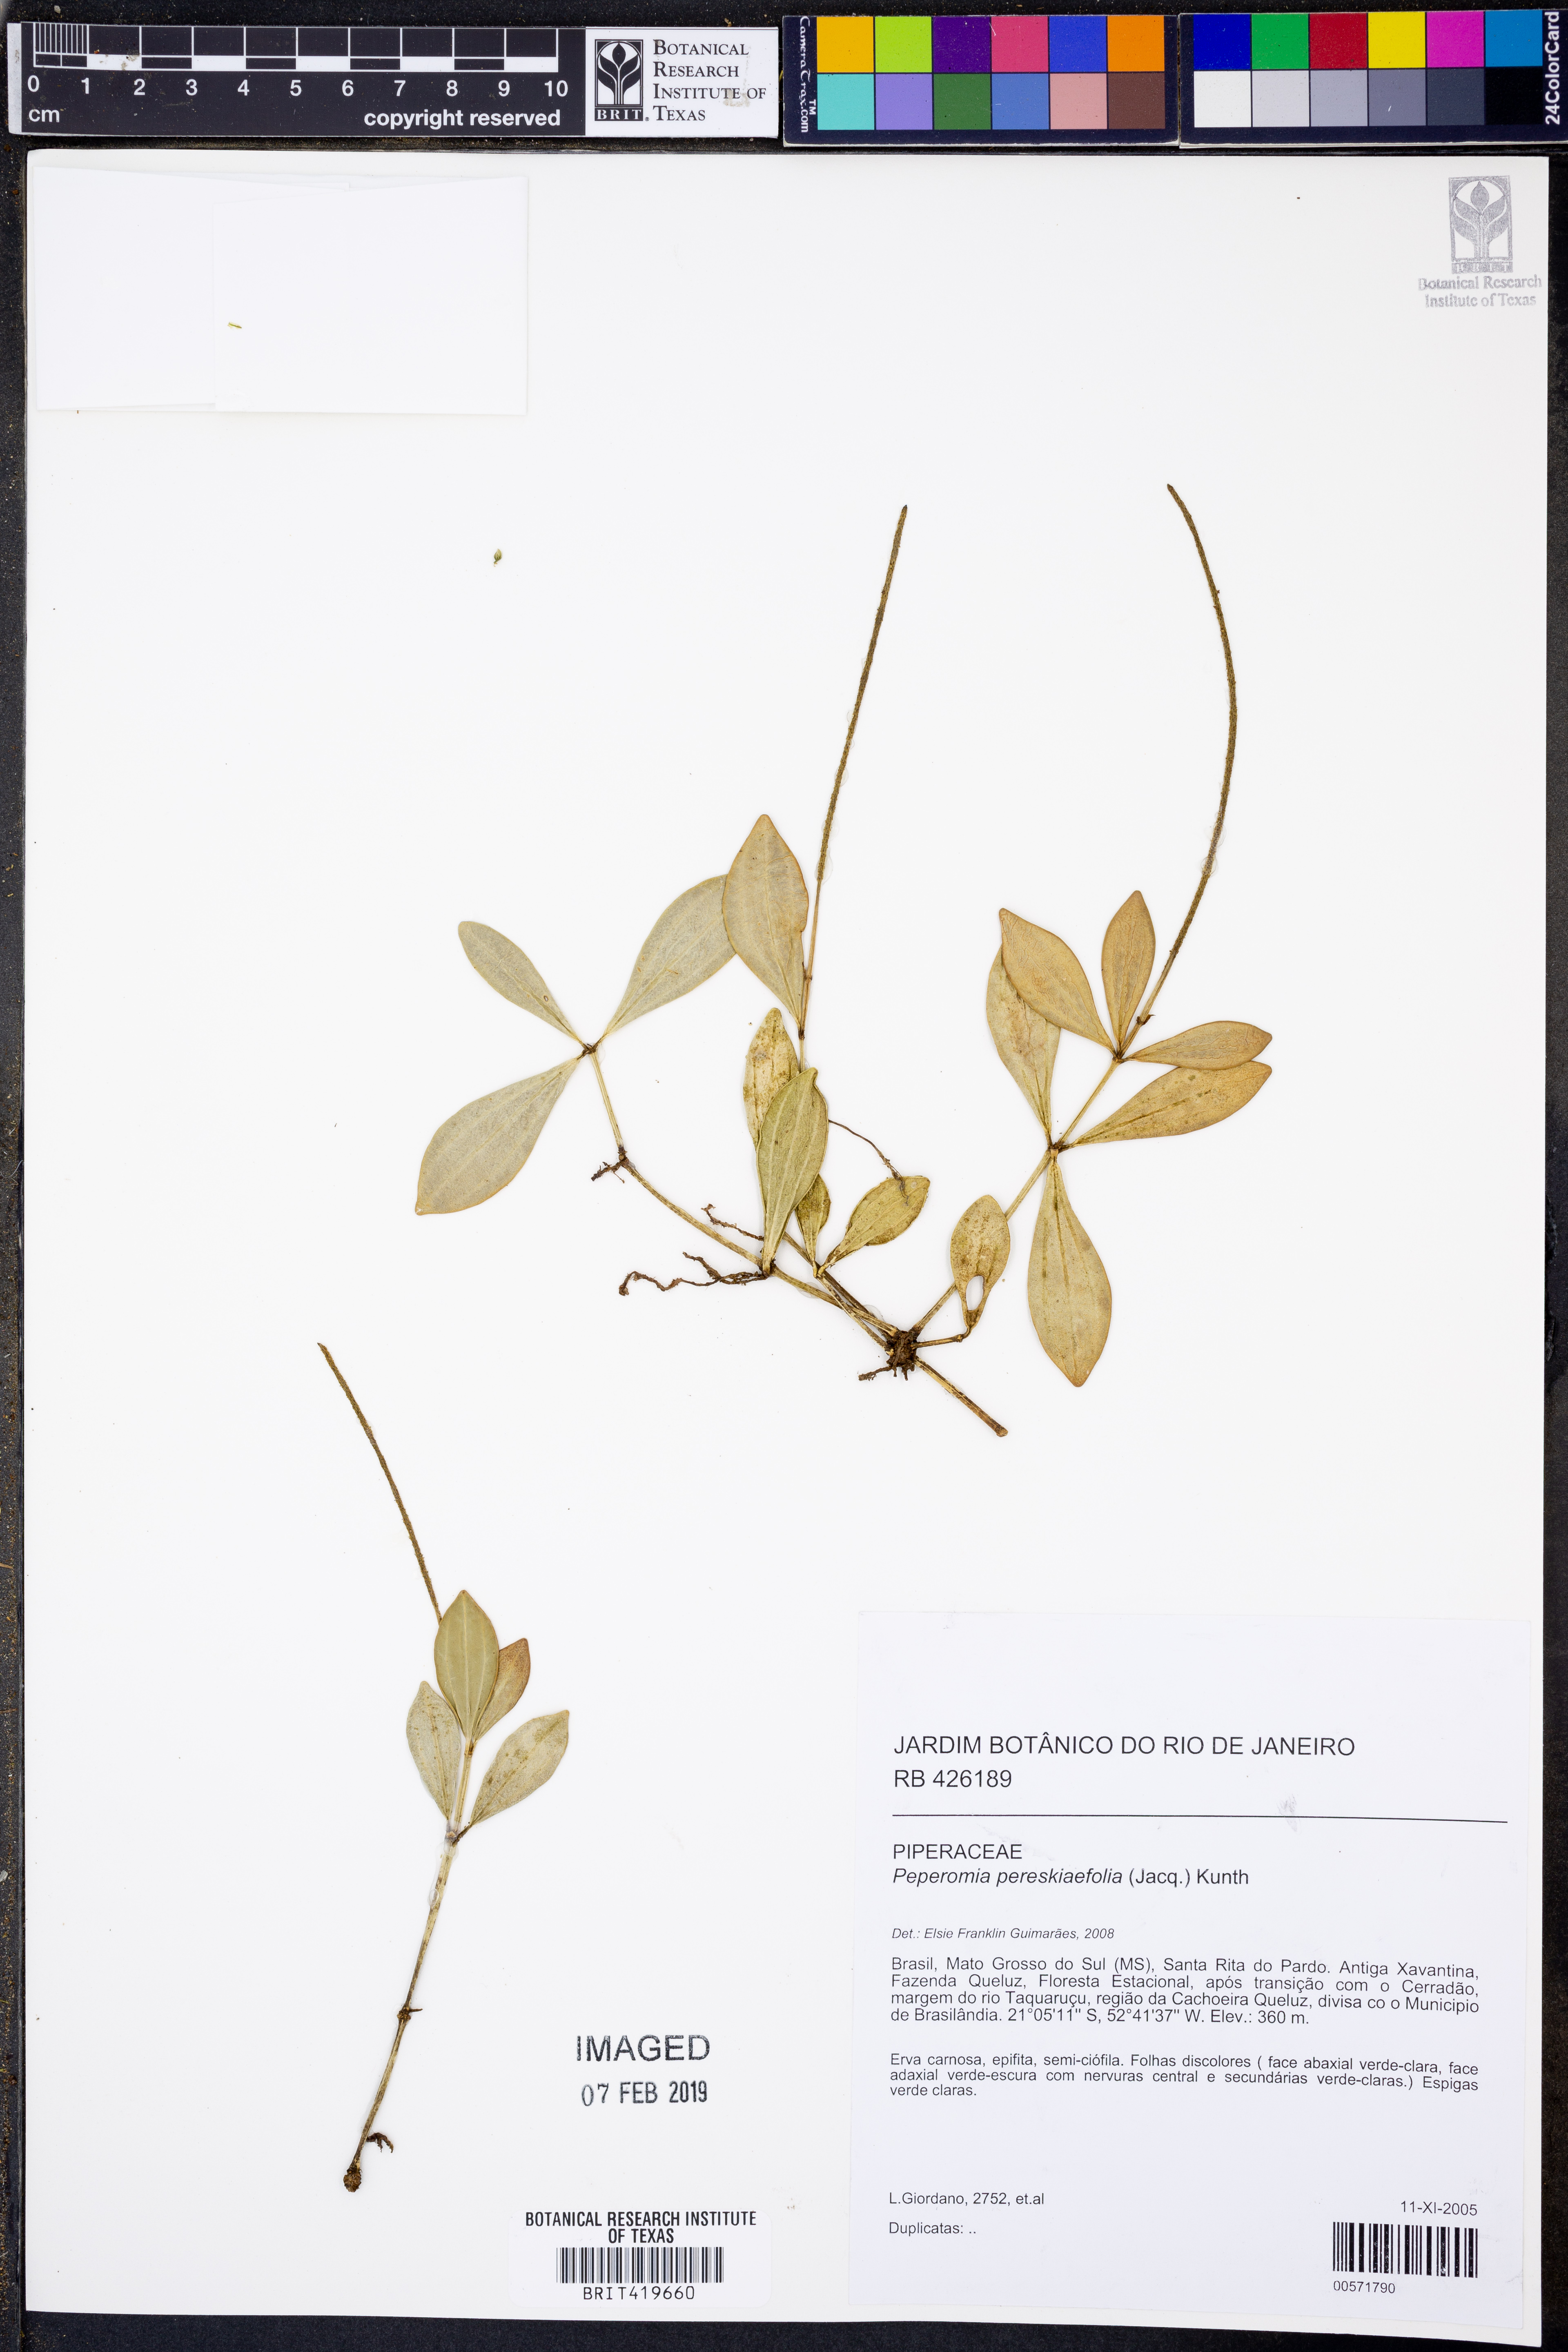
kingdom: Plantae
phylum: Tracheophyta
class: Magnoliopsida
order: Piperales
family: Piperaceae
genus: Peperomia
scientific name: Peperomia pereskiifolia
